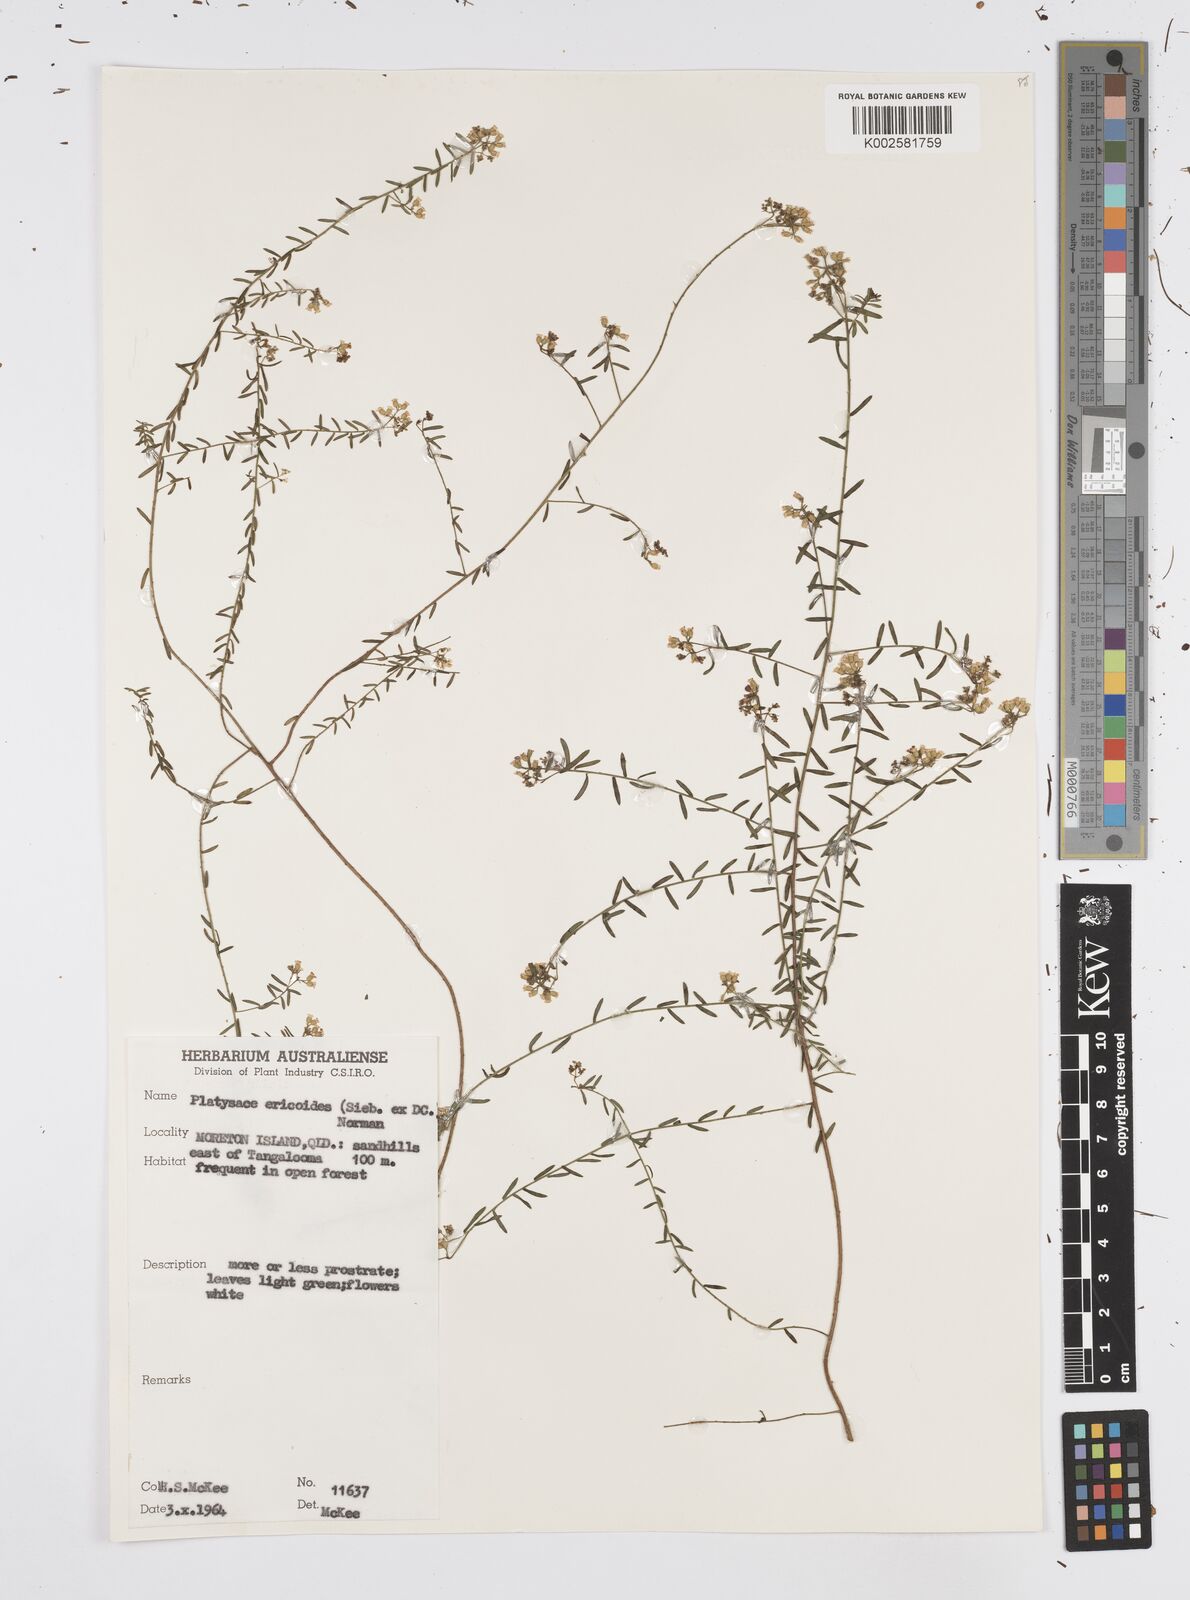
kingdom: Plantae
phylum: Tracheophyta
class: Magnoliopsida
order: Apiales
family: Apiaceae
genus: Platysace
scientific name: Platysace ericoides
